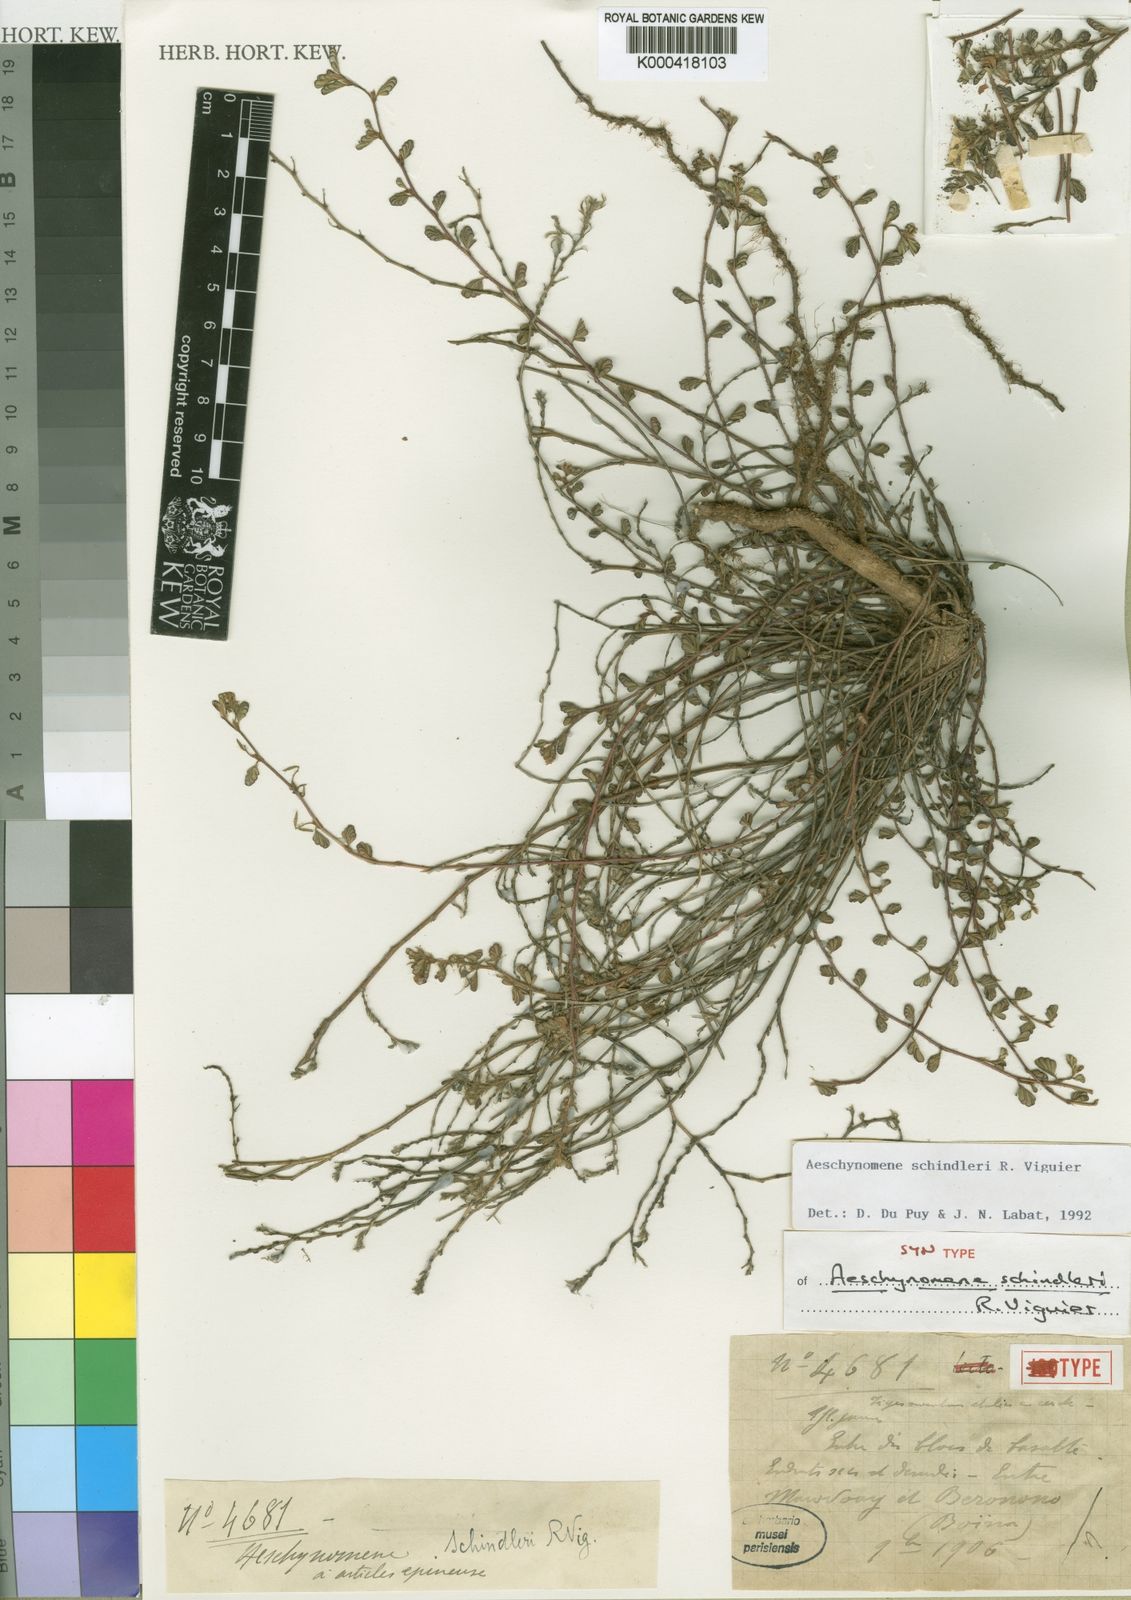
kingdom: Plantae
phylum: Tracheophyta
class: Magnoliopsida
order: Fabales
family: Fabaceae
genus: Aeschynomene
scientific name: Aeschynomene schindleri
